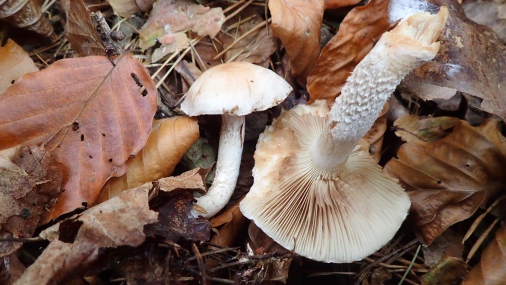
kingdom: Fungi
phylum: Basidiomycota
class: Agaricomycetes
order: Agaricales
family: Strophariaceae
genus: Pholiota
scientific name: Pholiota lenta
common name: løv-skælhat
